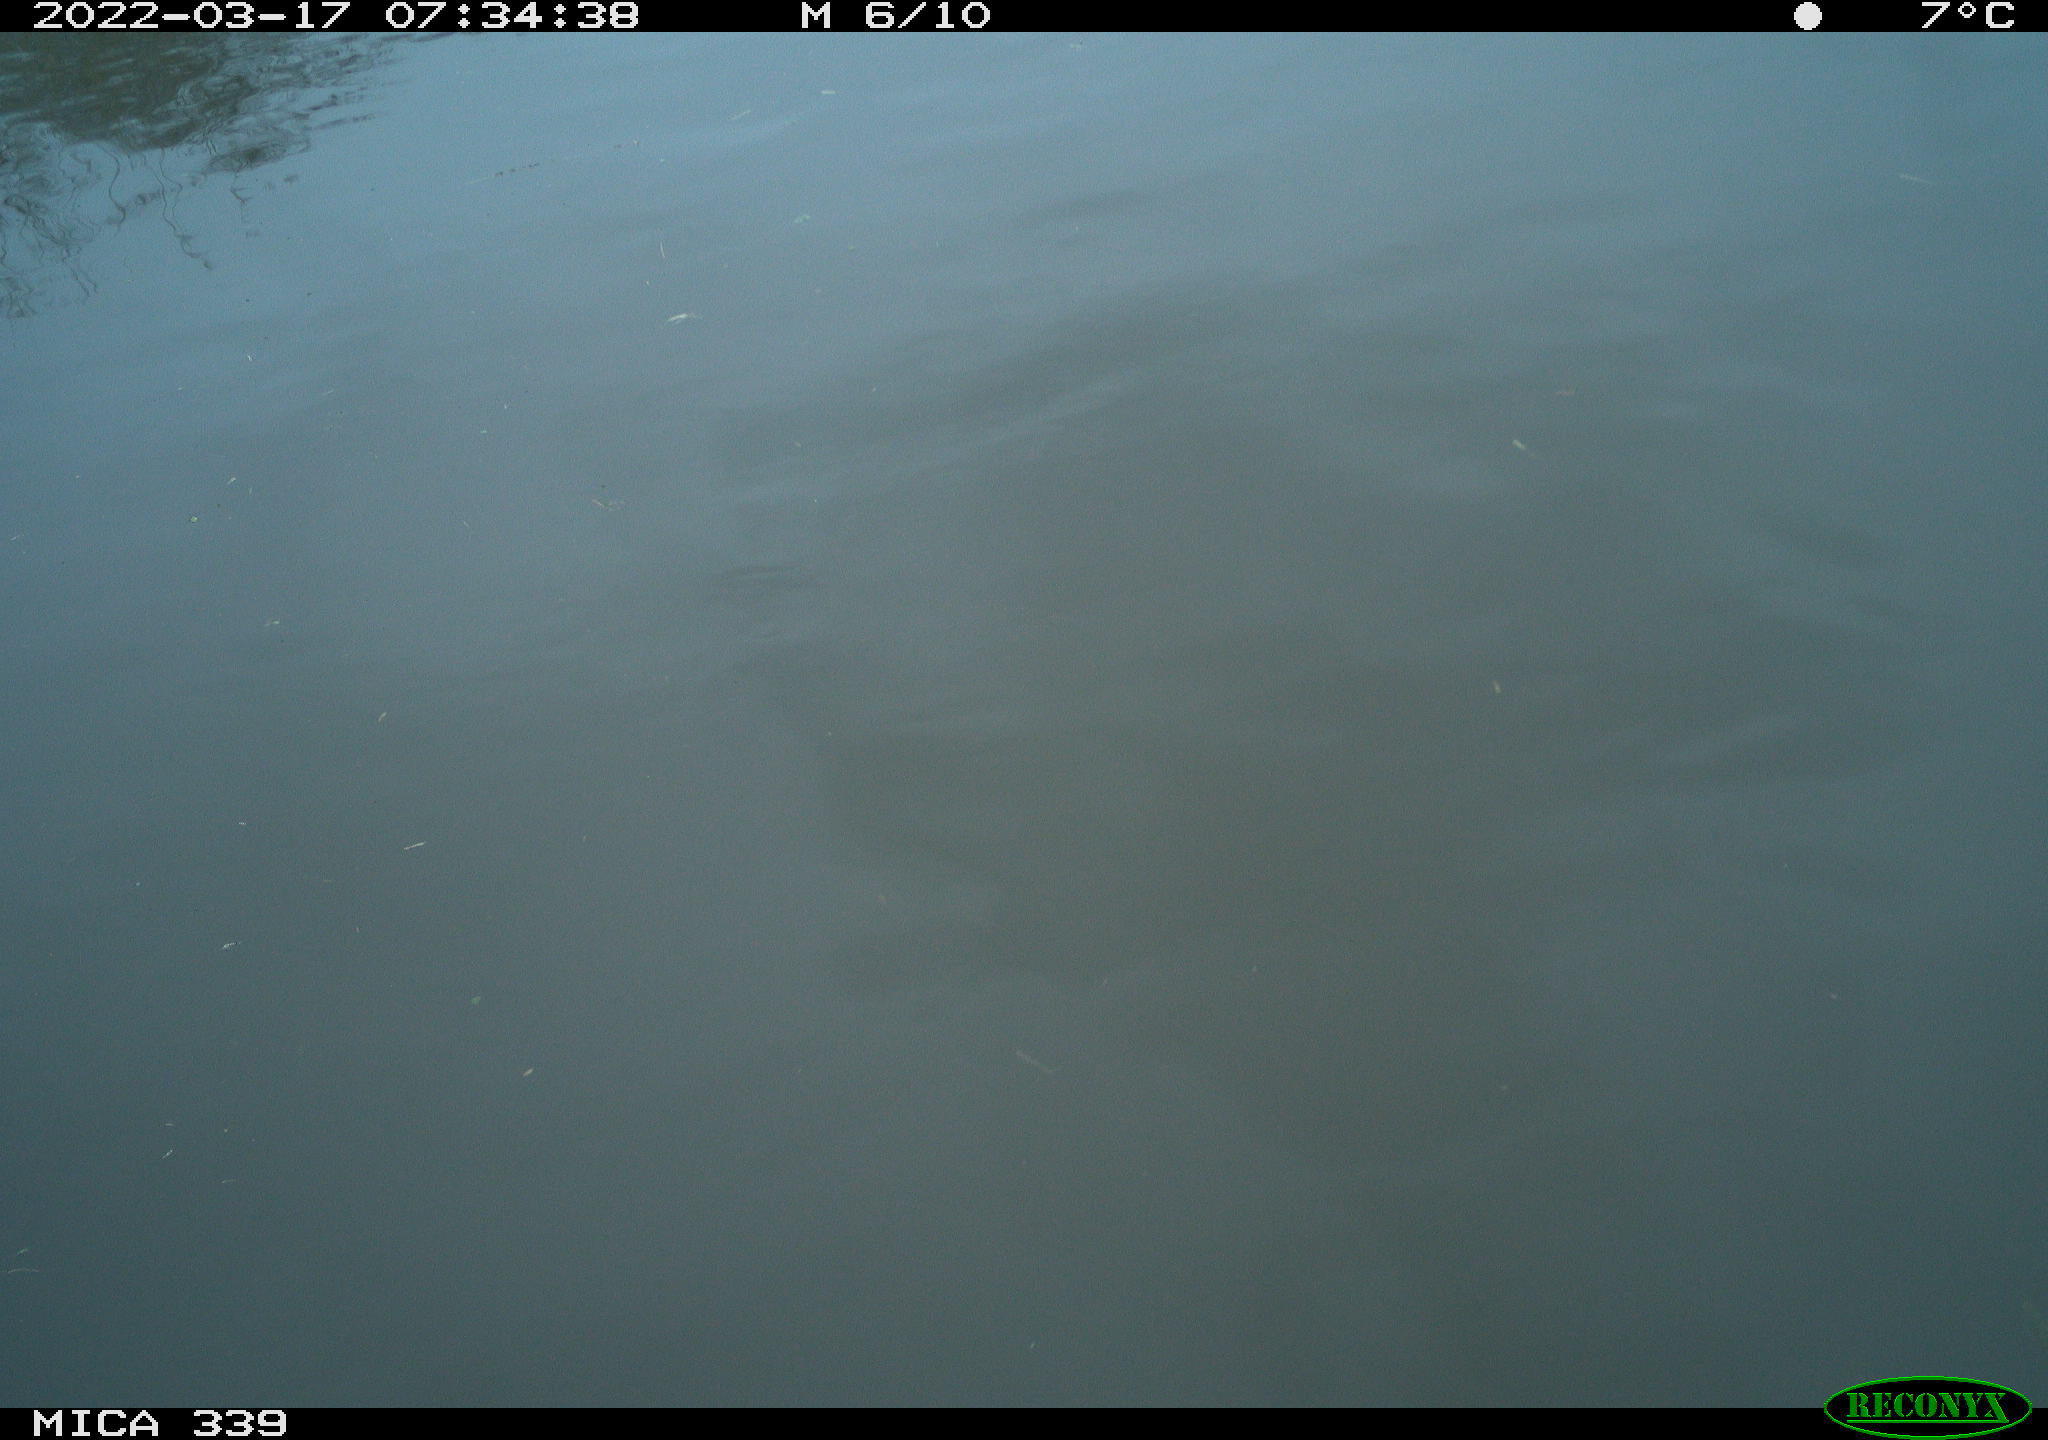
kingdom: Animalia
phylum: Chordata
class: Aves
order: Gruiformes
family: Rallidae
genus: Fulica
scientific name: Fulica atra
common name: Eurasian coot
